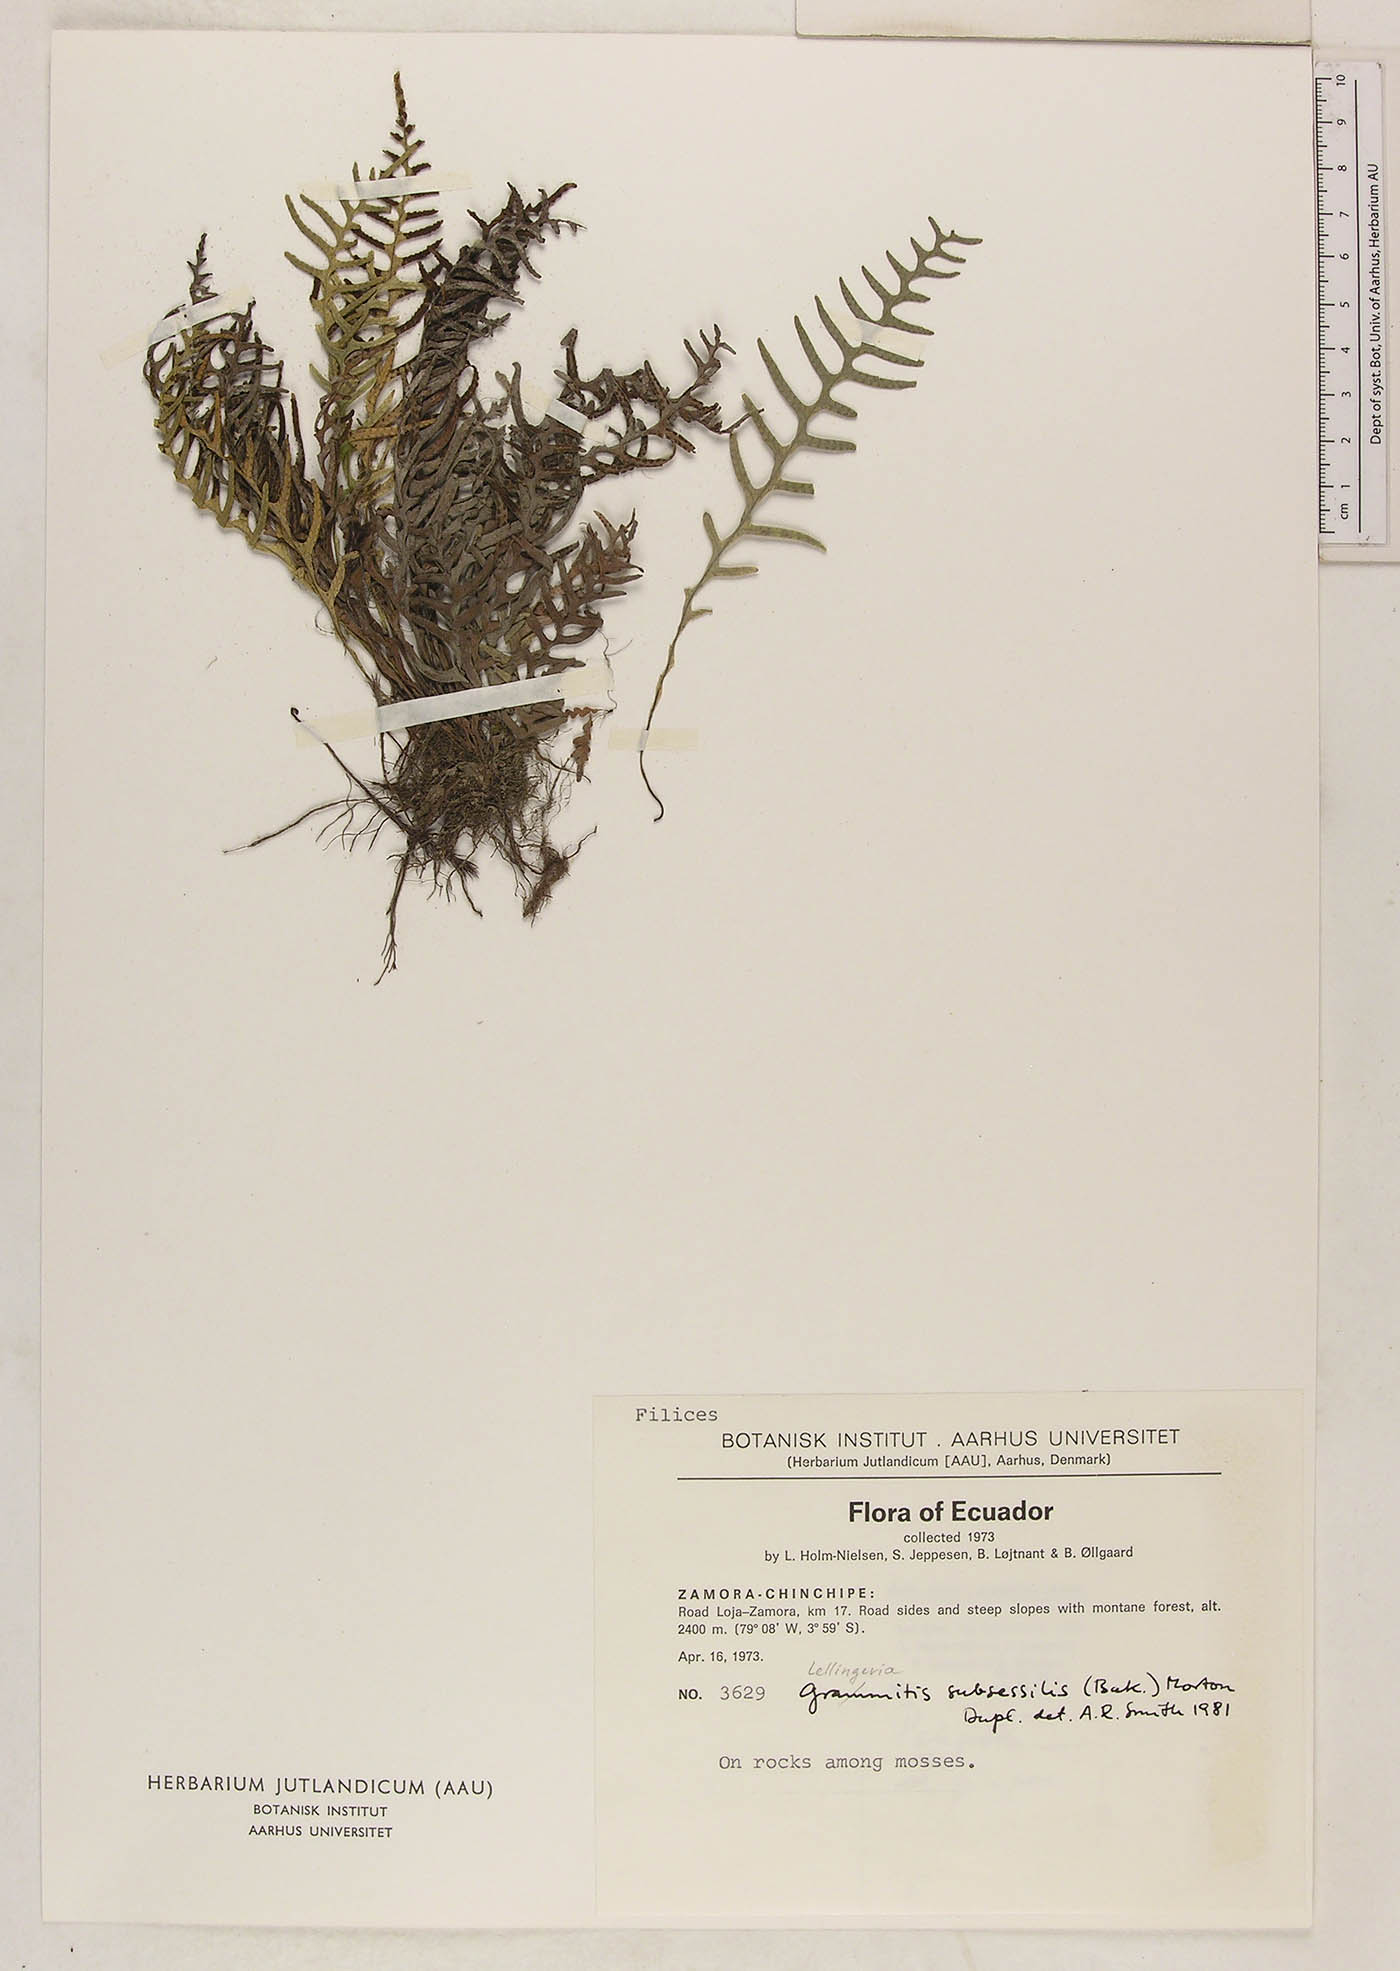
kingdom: Plantae
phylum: Tracheophyta
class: Polypodiopsida
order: Polypodiales
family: Polypodiaceae
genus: Lellingeria
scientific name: Lellingeria subsessilis
